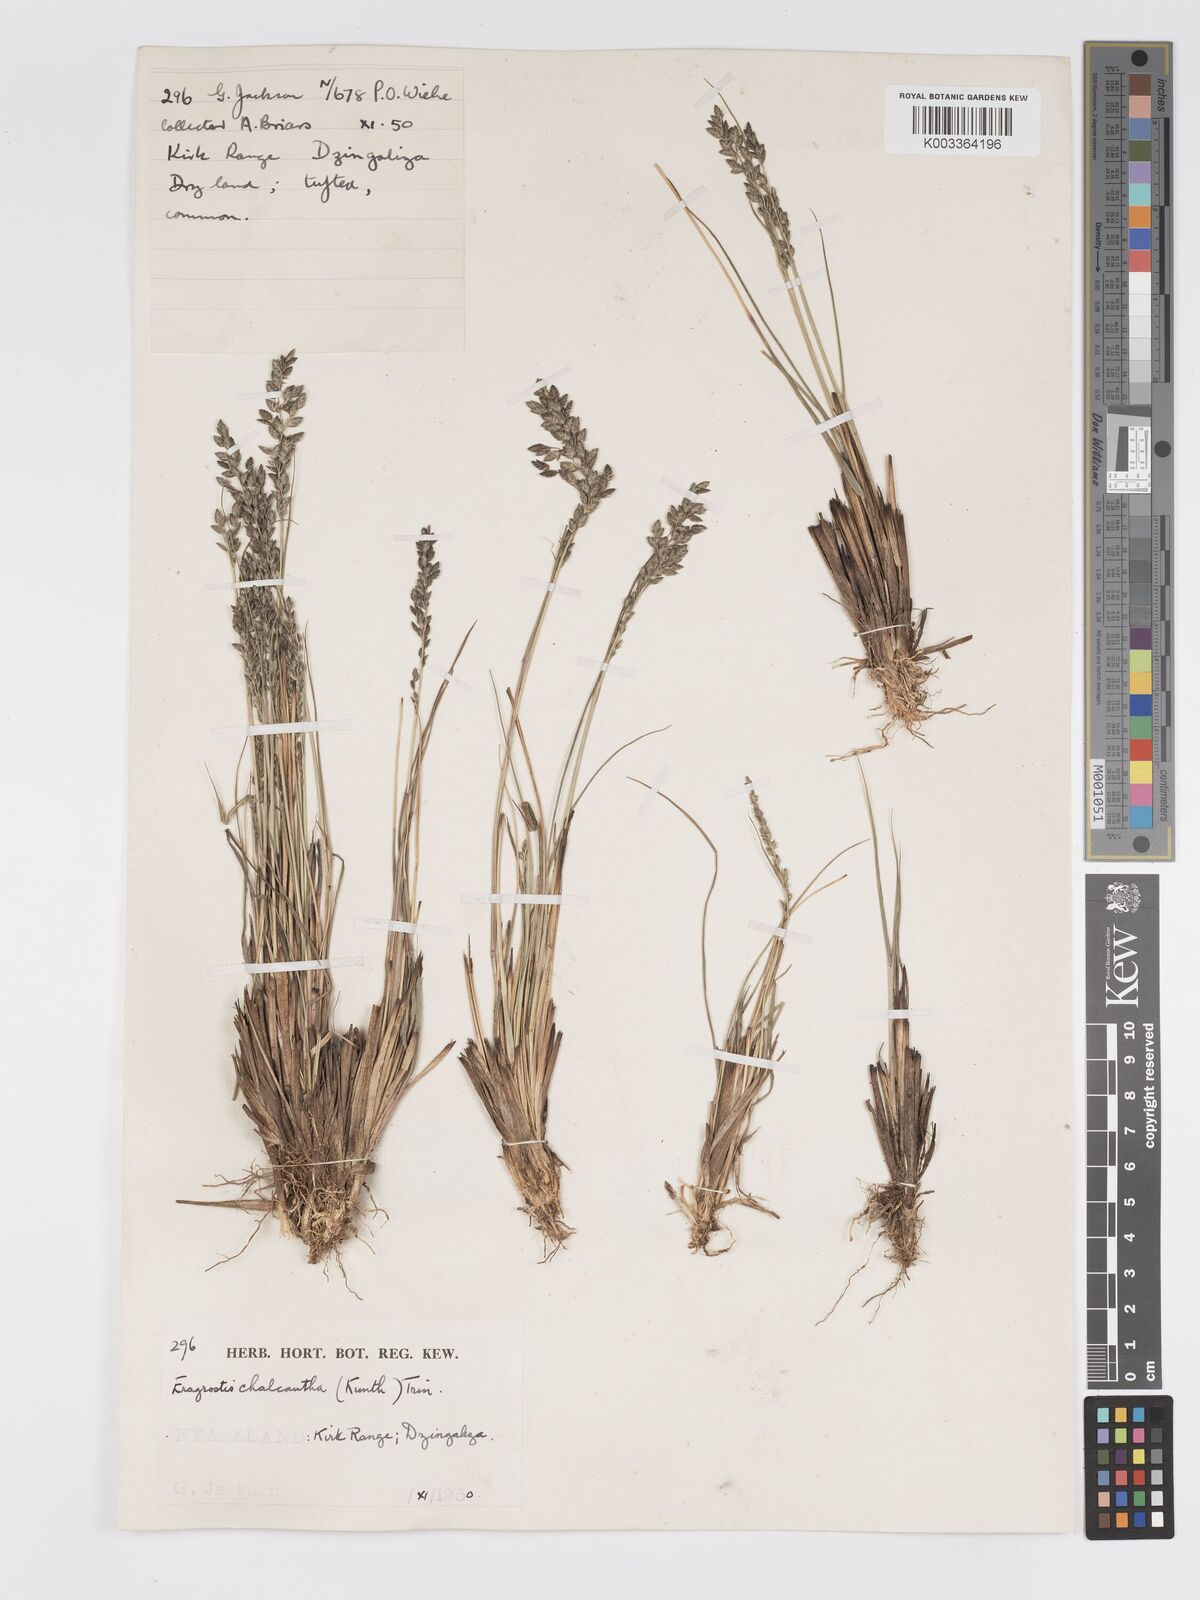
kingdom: Plantae
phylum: Tracheophyta
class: Liliopsida
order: Poales
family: Poaceae
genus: Eragrostis
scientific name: Eragrostis racemosa
